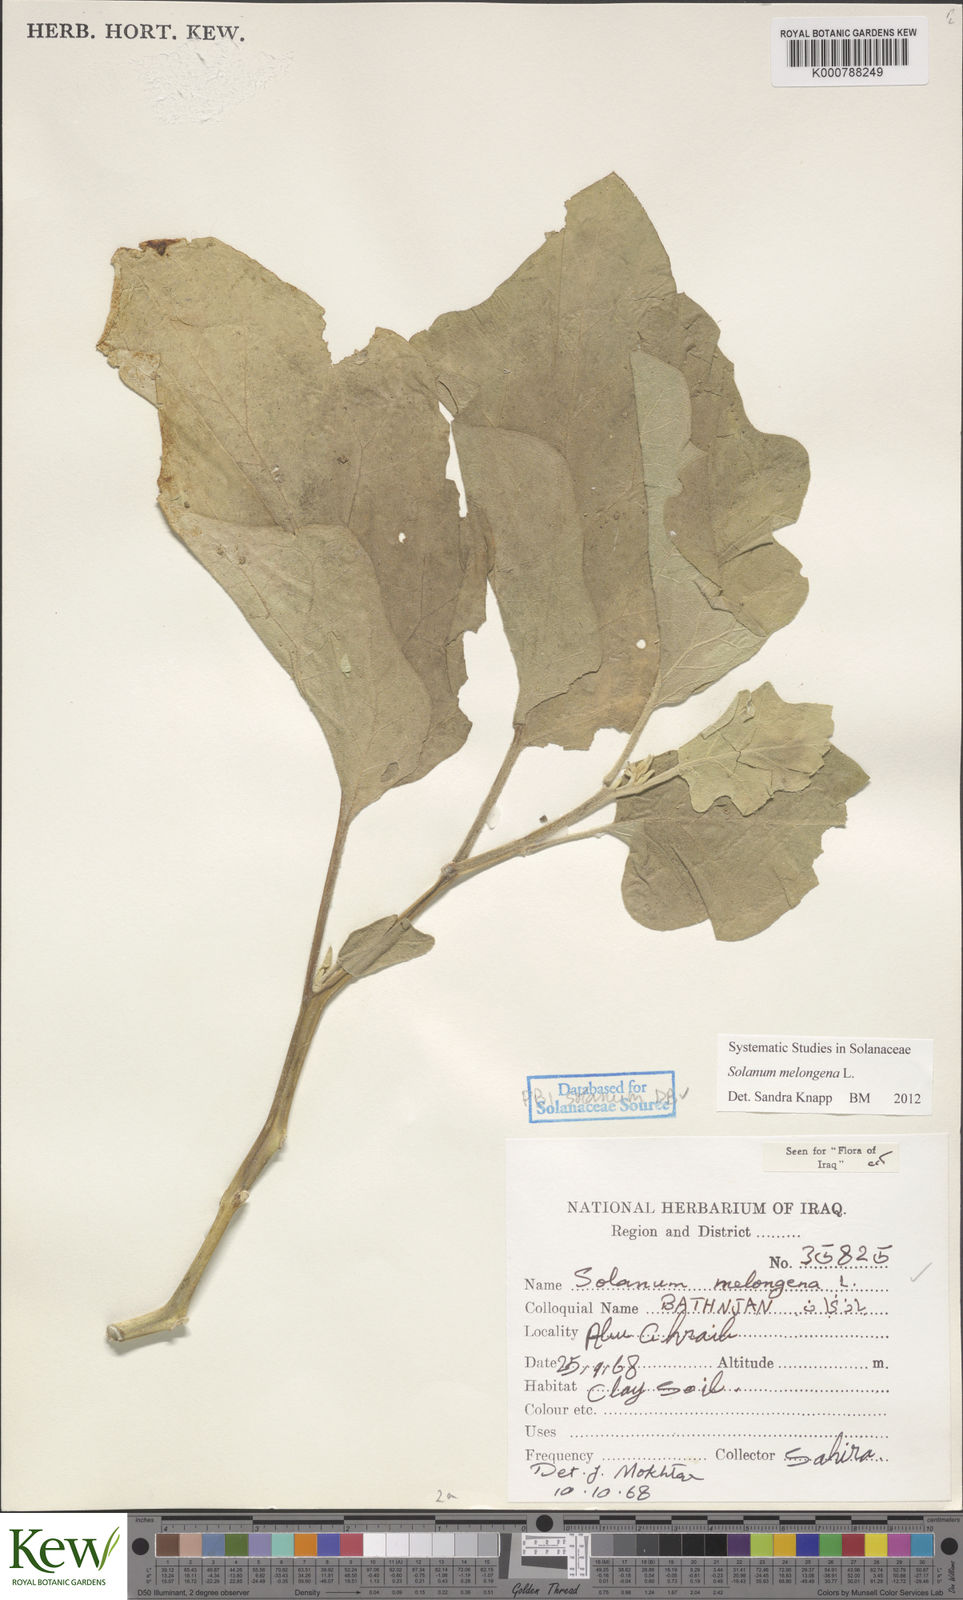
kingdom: Plantae
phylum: Tracheophyta
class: Magnoliopsida
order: Solanales
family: Solanaceae
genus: Solanum
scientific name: Solanum melongena
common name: Eggplant
